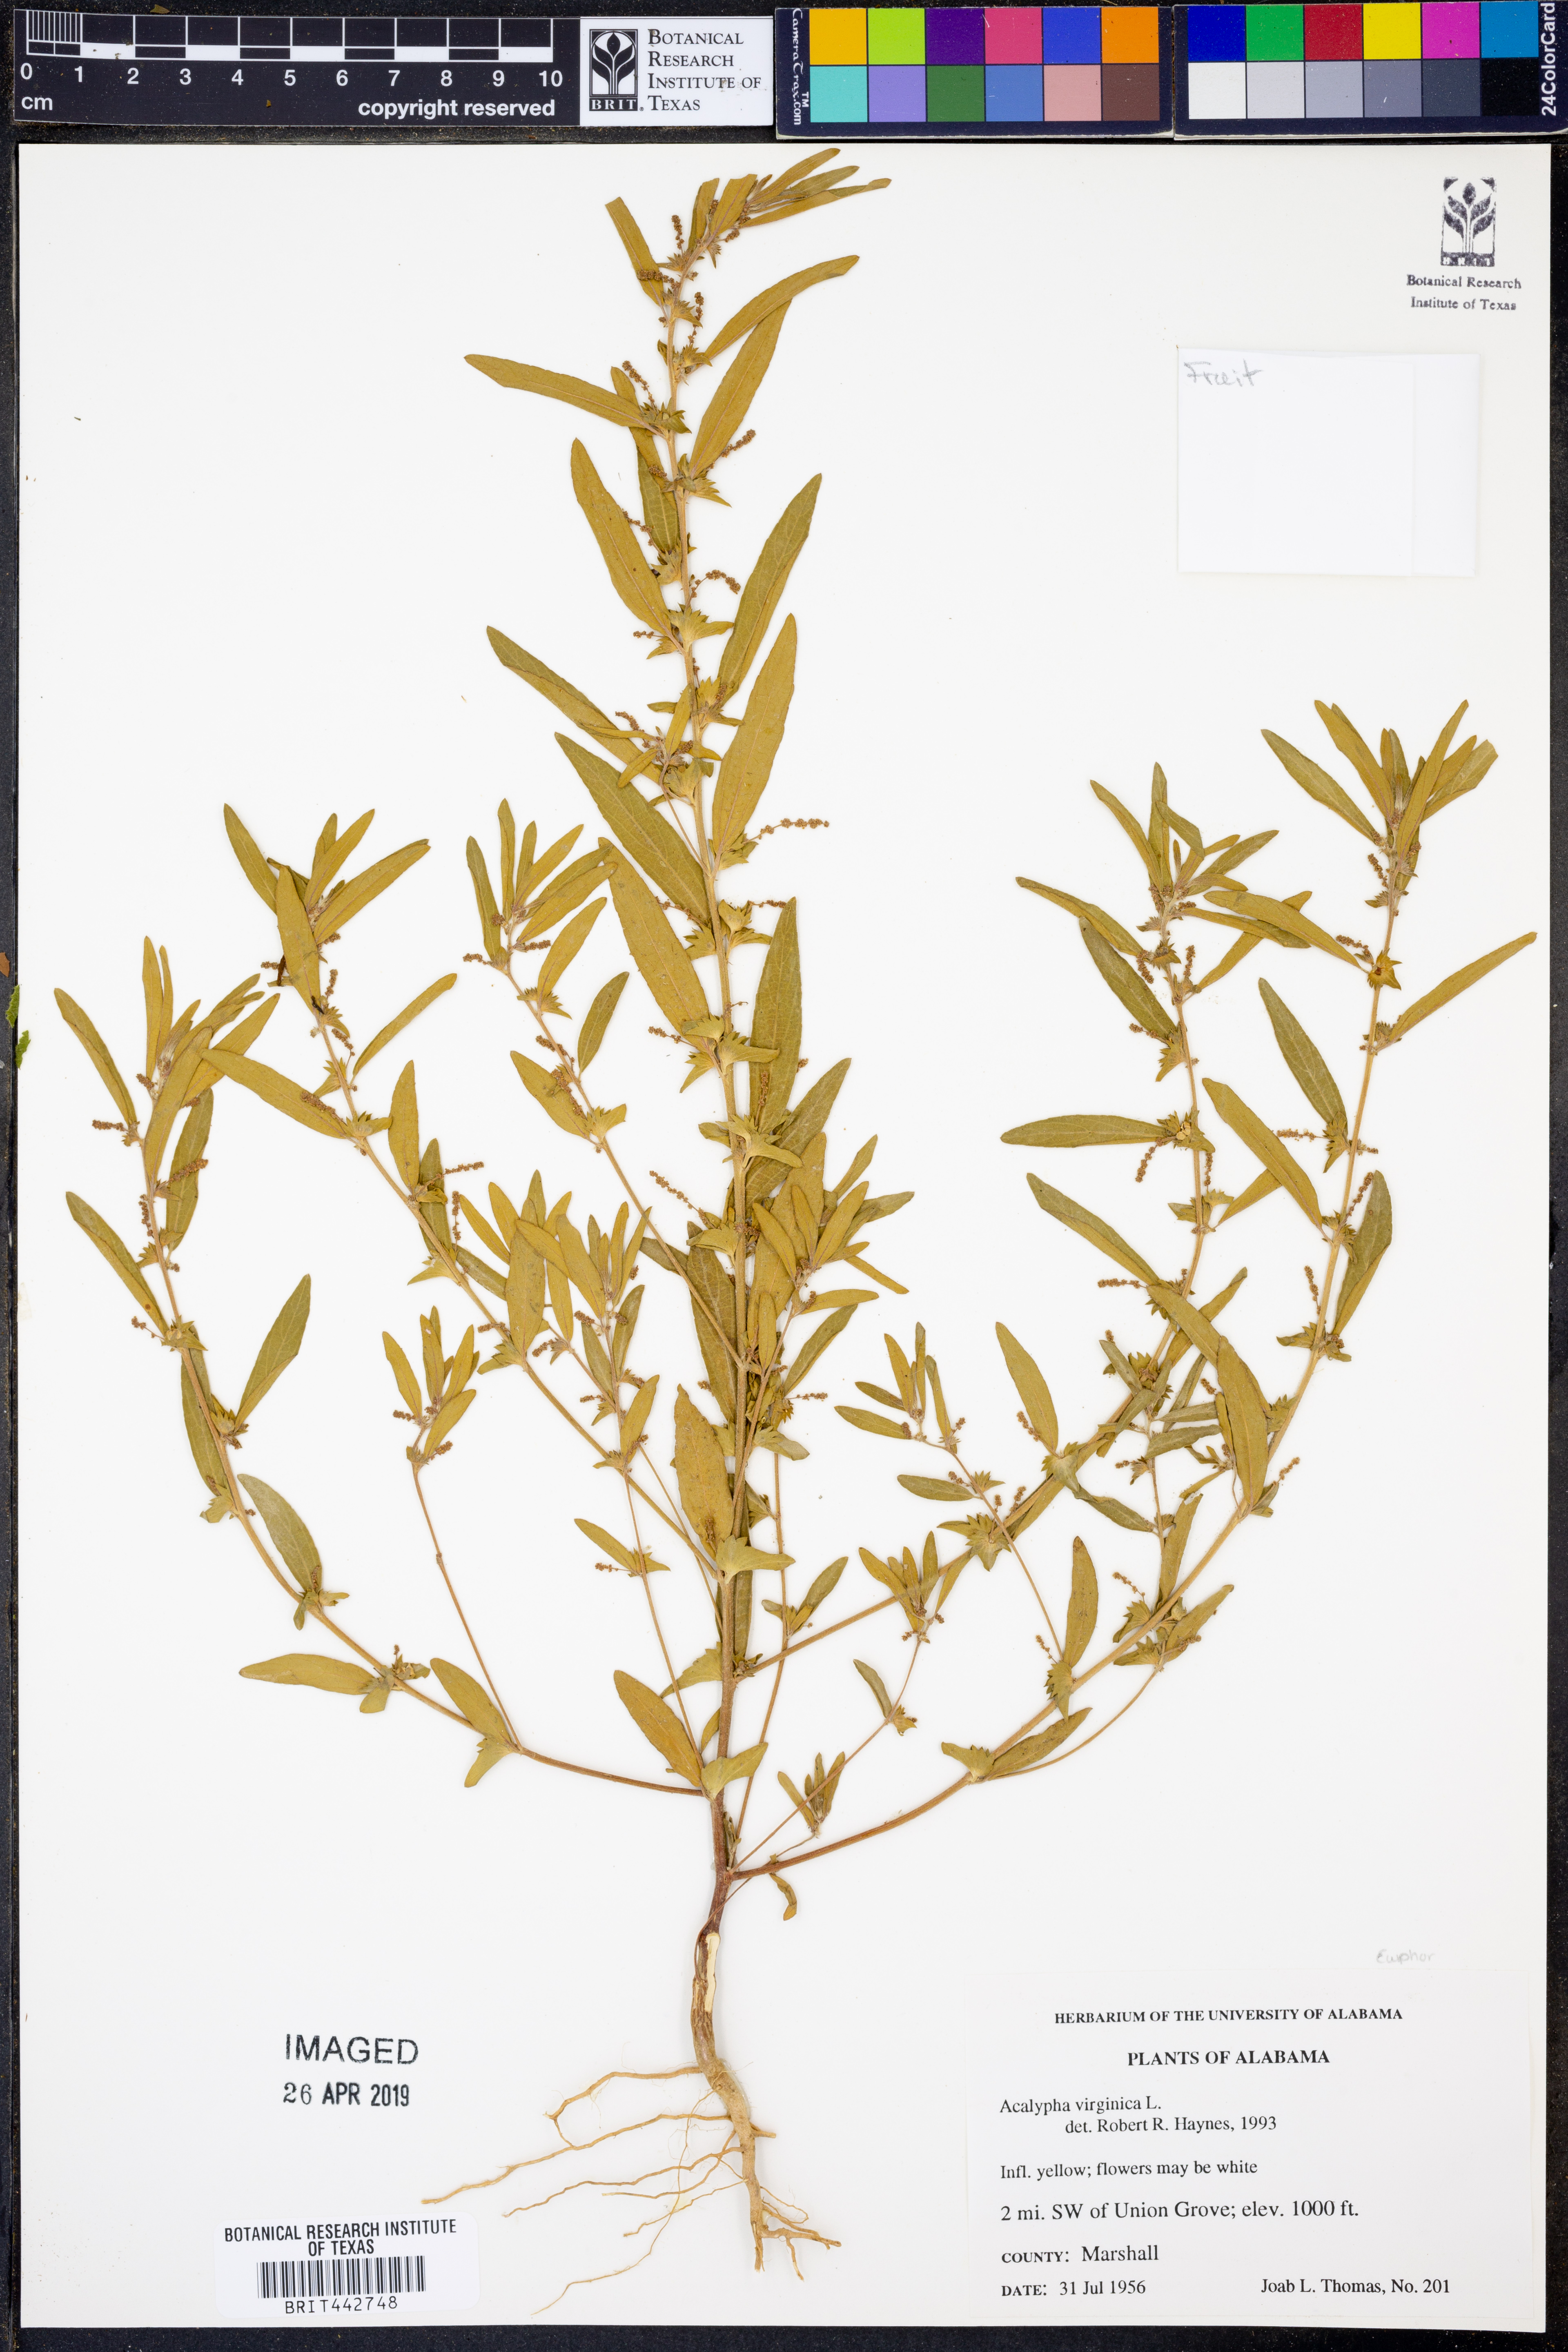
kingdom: Plantae
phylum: Tracheophyta
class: Magnoliopsida
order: Malpighiales
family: Euphorbiaceae
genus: Acalypha
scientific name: Acalypha virginica
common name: Virginia copperleaf
